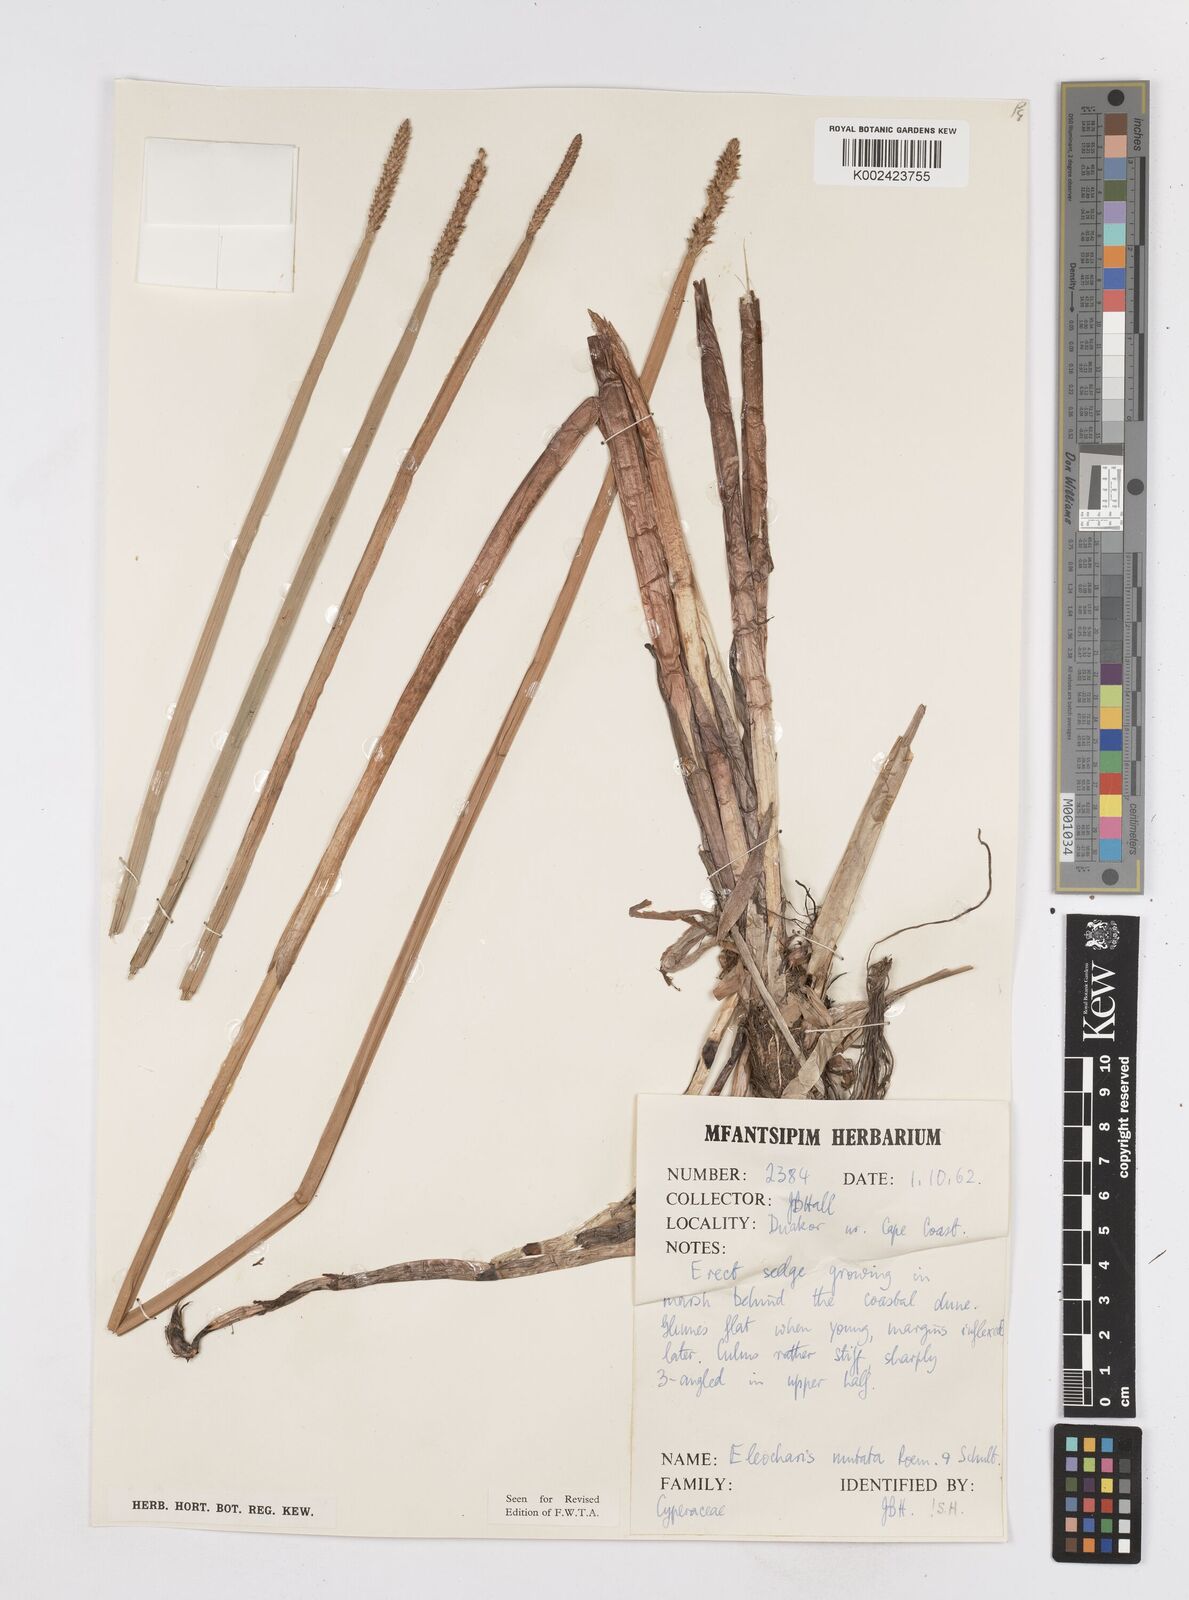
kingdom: Plantae
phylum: Tracheophyta
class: Liliopsida
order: Poales
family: Cyperaceae
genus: Eleocharis
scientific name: Eleocharis mutata
